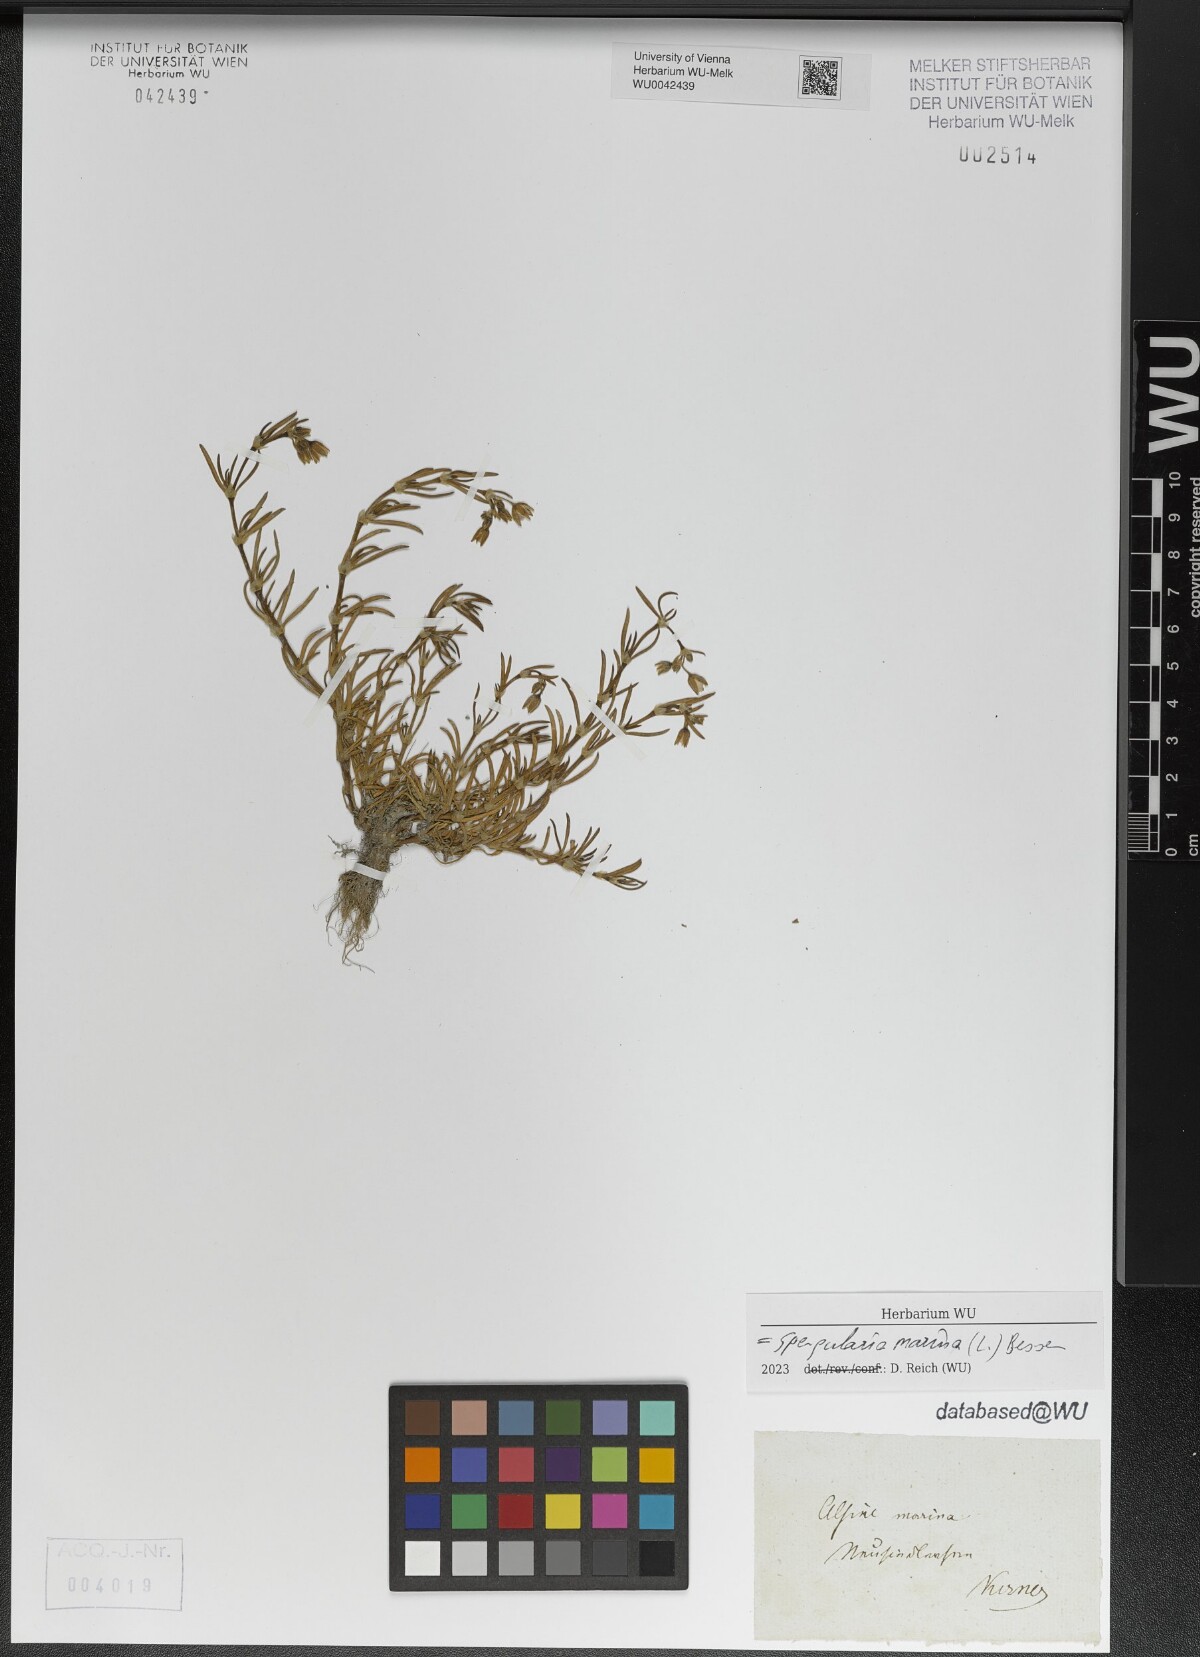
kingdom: Plantae
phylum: Tracheophyta
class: Magnoliopsida
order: Caryophyllales
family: Caryophyllaceae
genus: Spergularia
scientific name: Spergularia marina
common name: Lesser sea-spurrey
